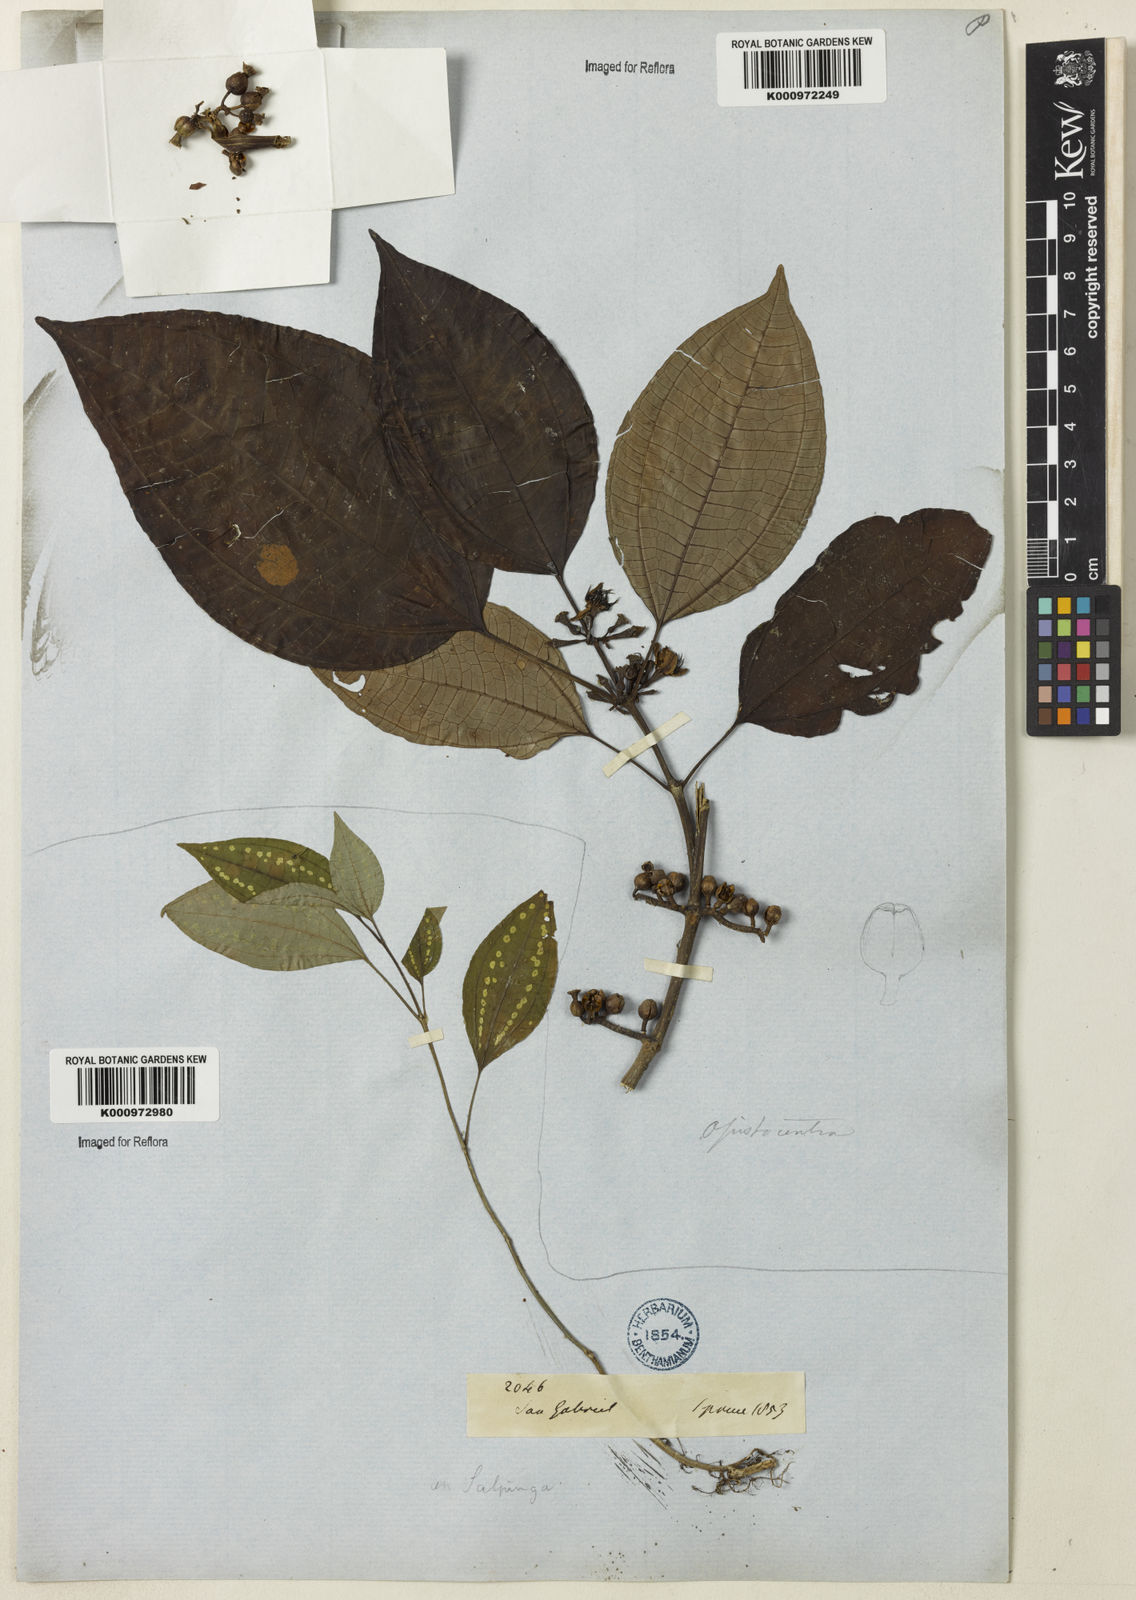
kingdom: Plantae
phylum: Tracheophyta
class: Magnoliopsida
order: Myrtales
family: Melastomataceae
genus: Opisthocentra
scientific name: Opisthocentra clidemioides
